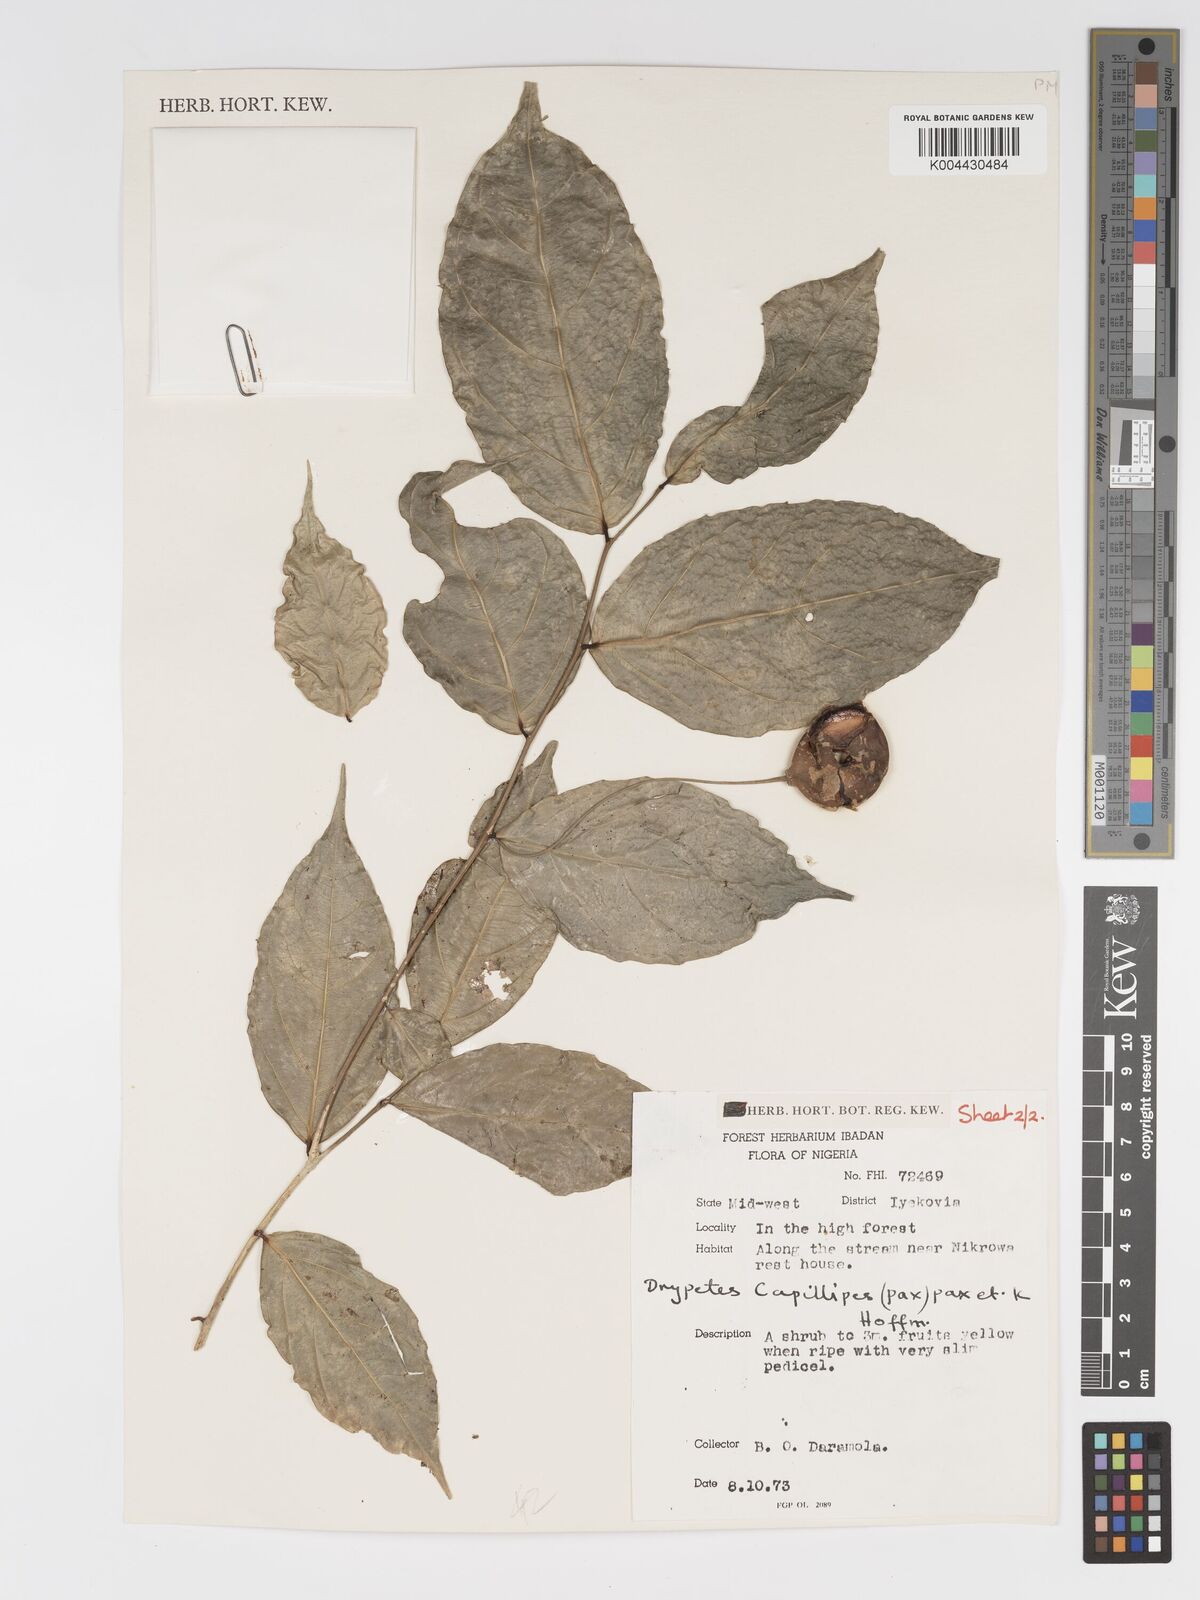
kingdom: Plantae
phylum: Tracheophyta
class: Magnoliopsida
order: Malpighiales
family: Putranjivaceae
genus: Drypetes
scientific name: Drypetes capillipes
